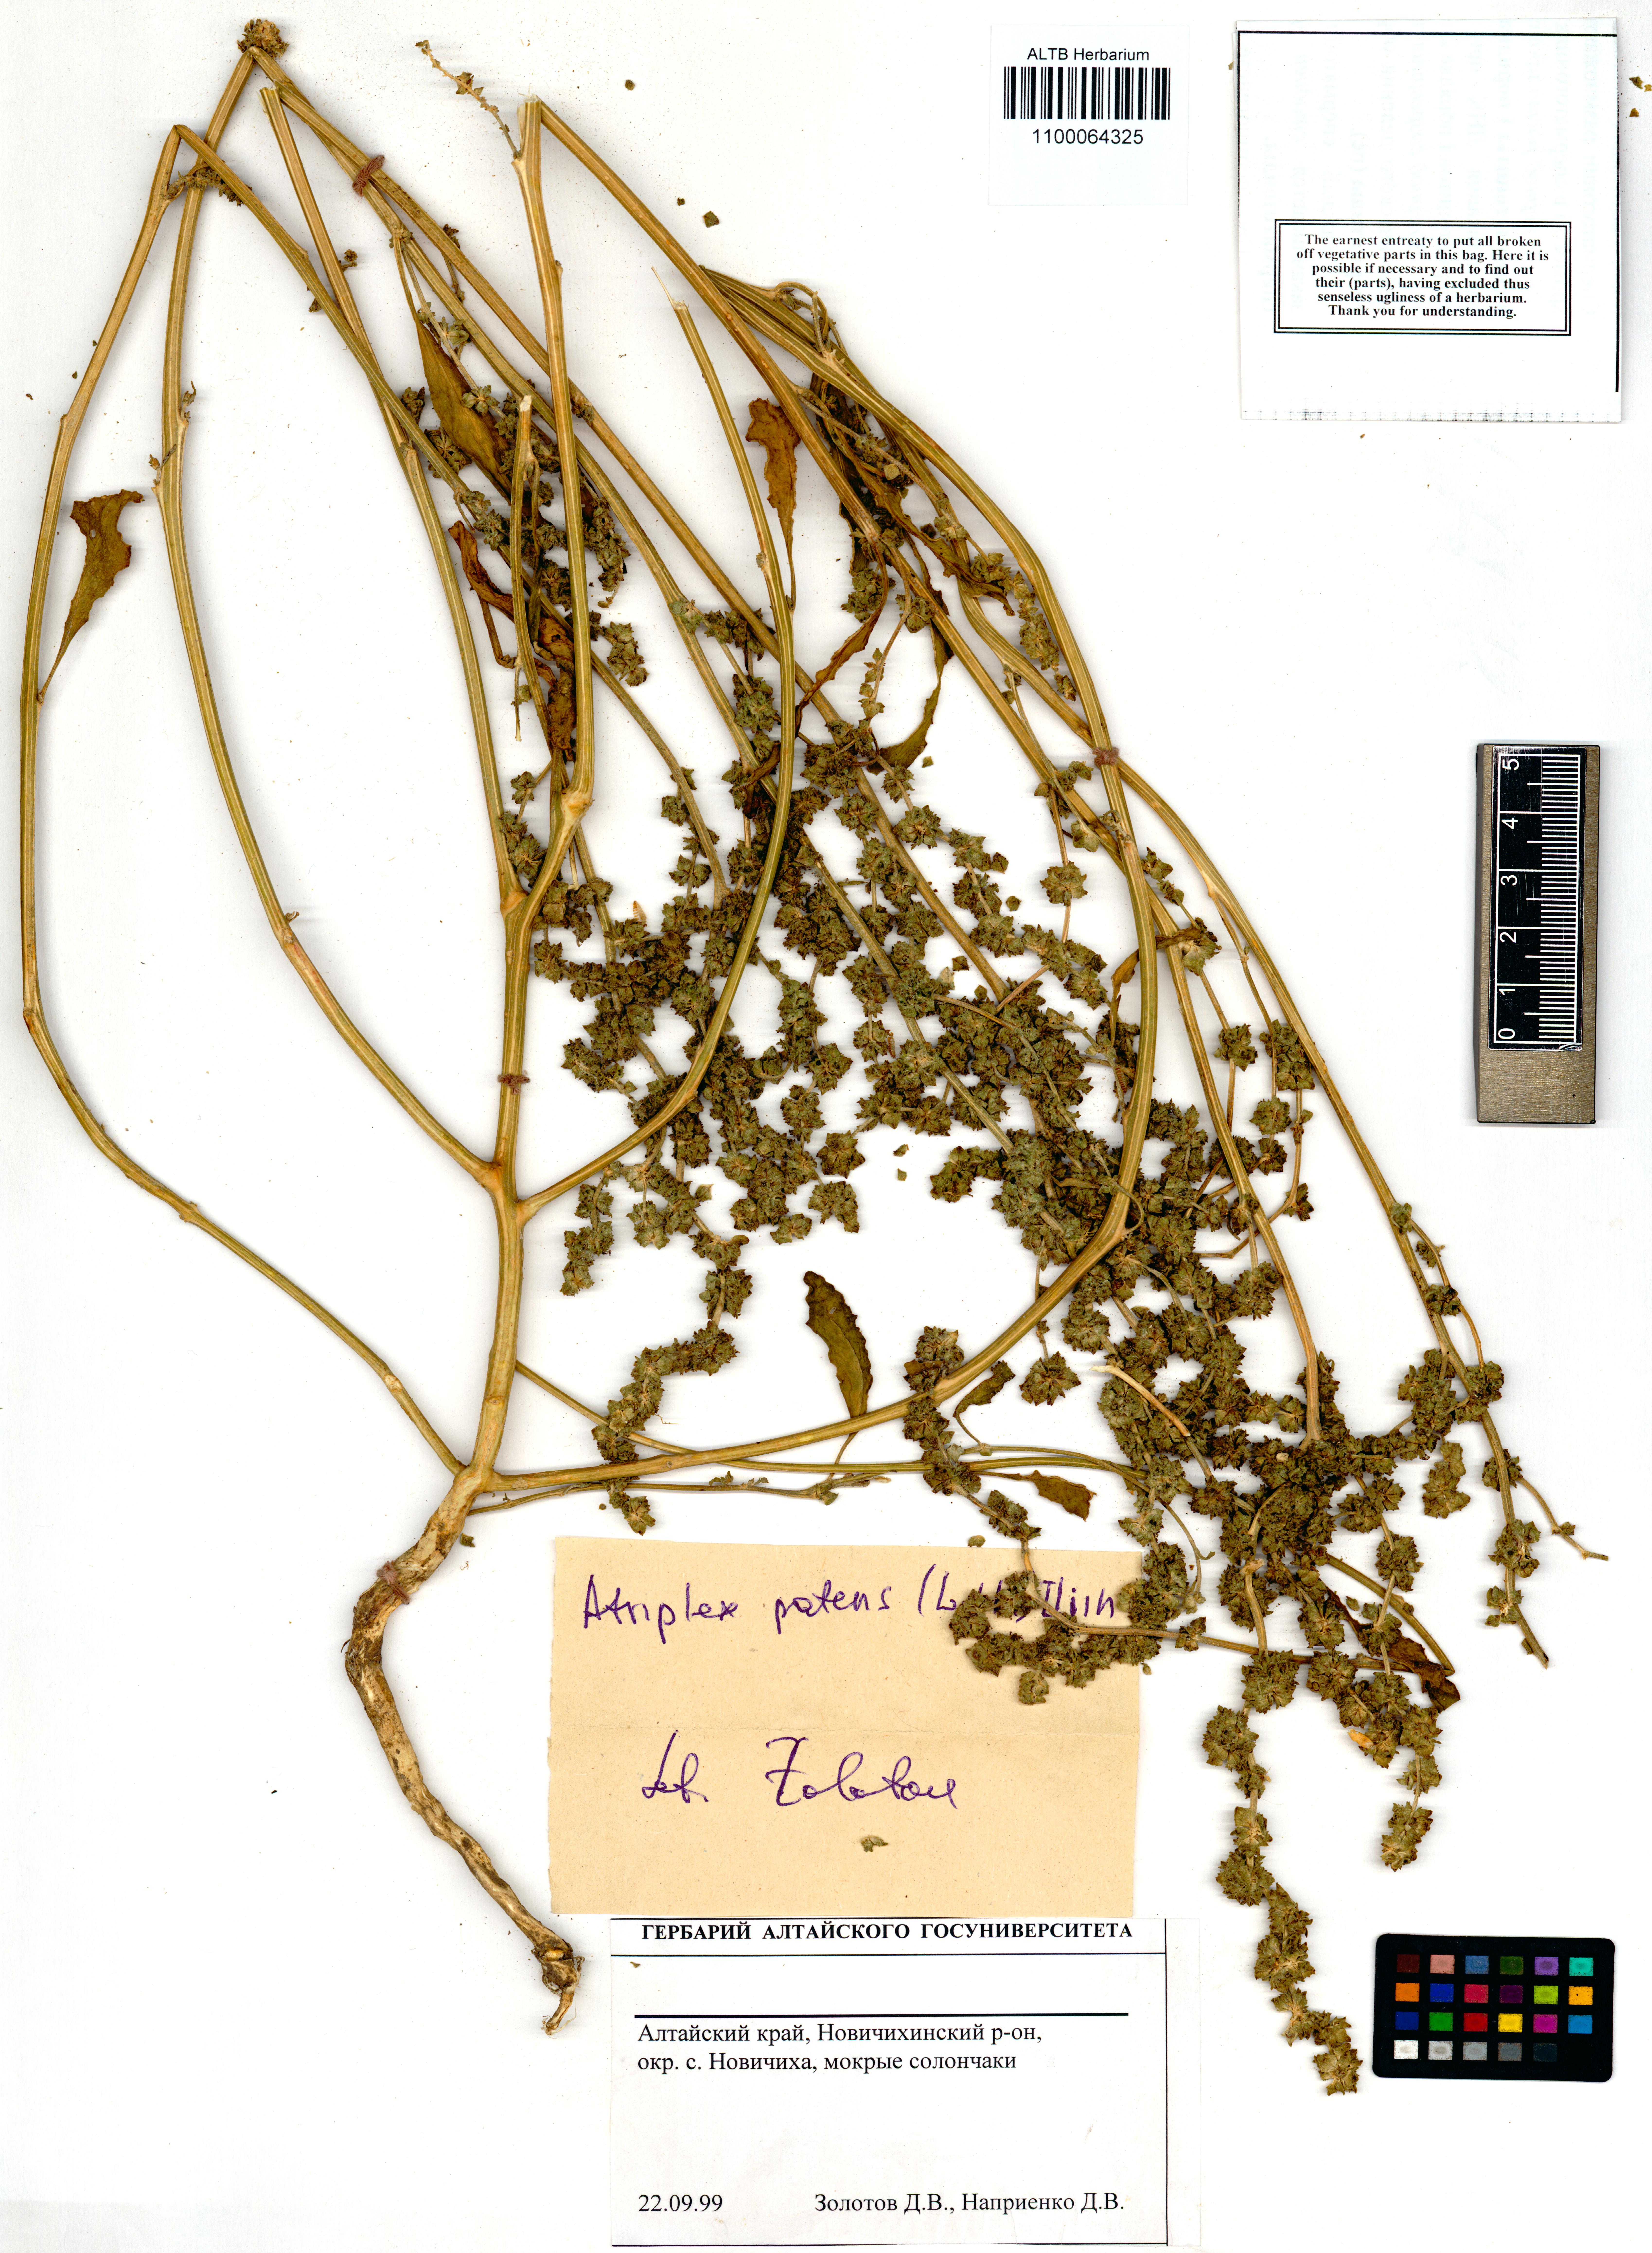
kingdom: Plantae
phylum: Tracheophyta
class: Magnoliopsida
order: Caryophyllales
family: Amaranthaceae
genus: Atriplex
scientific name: Atriplex patens
